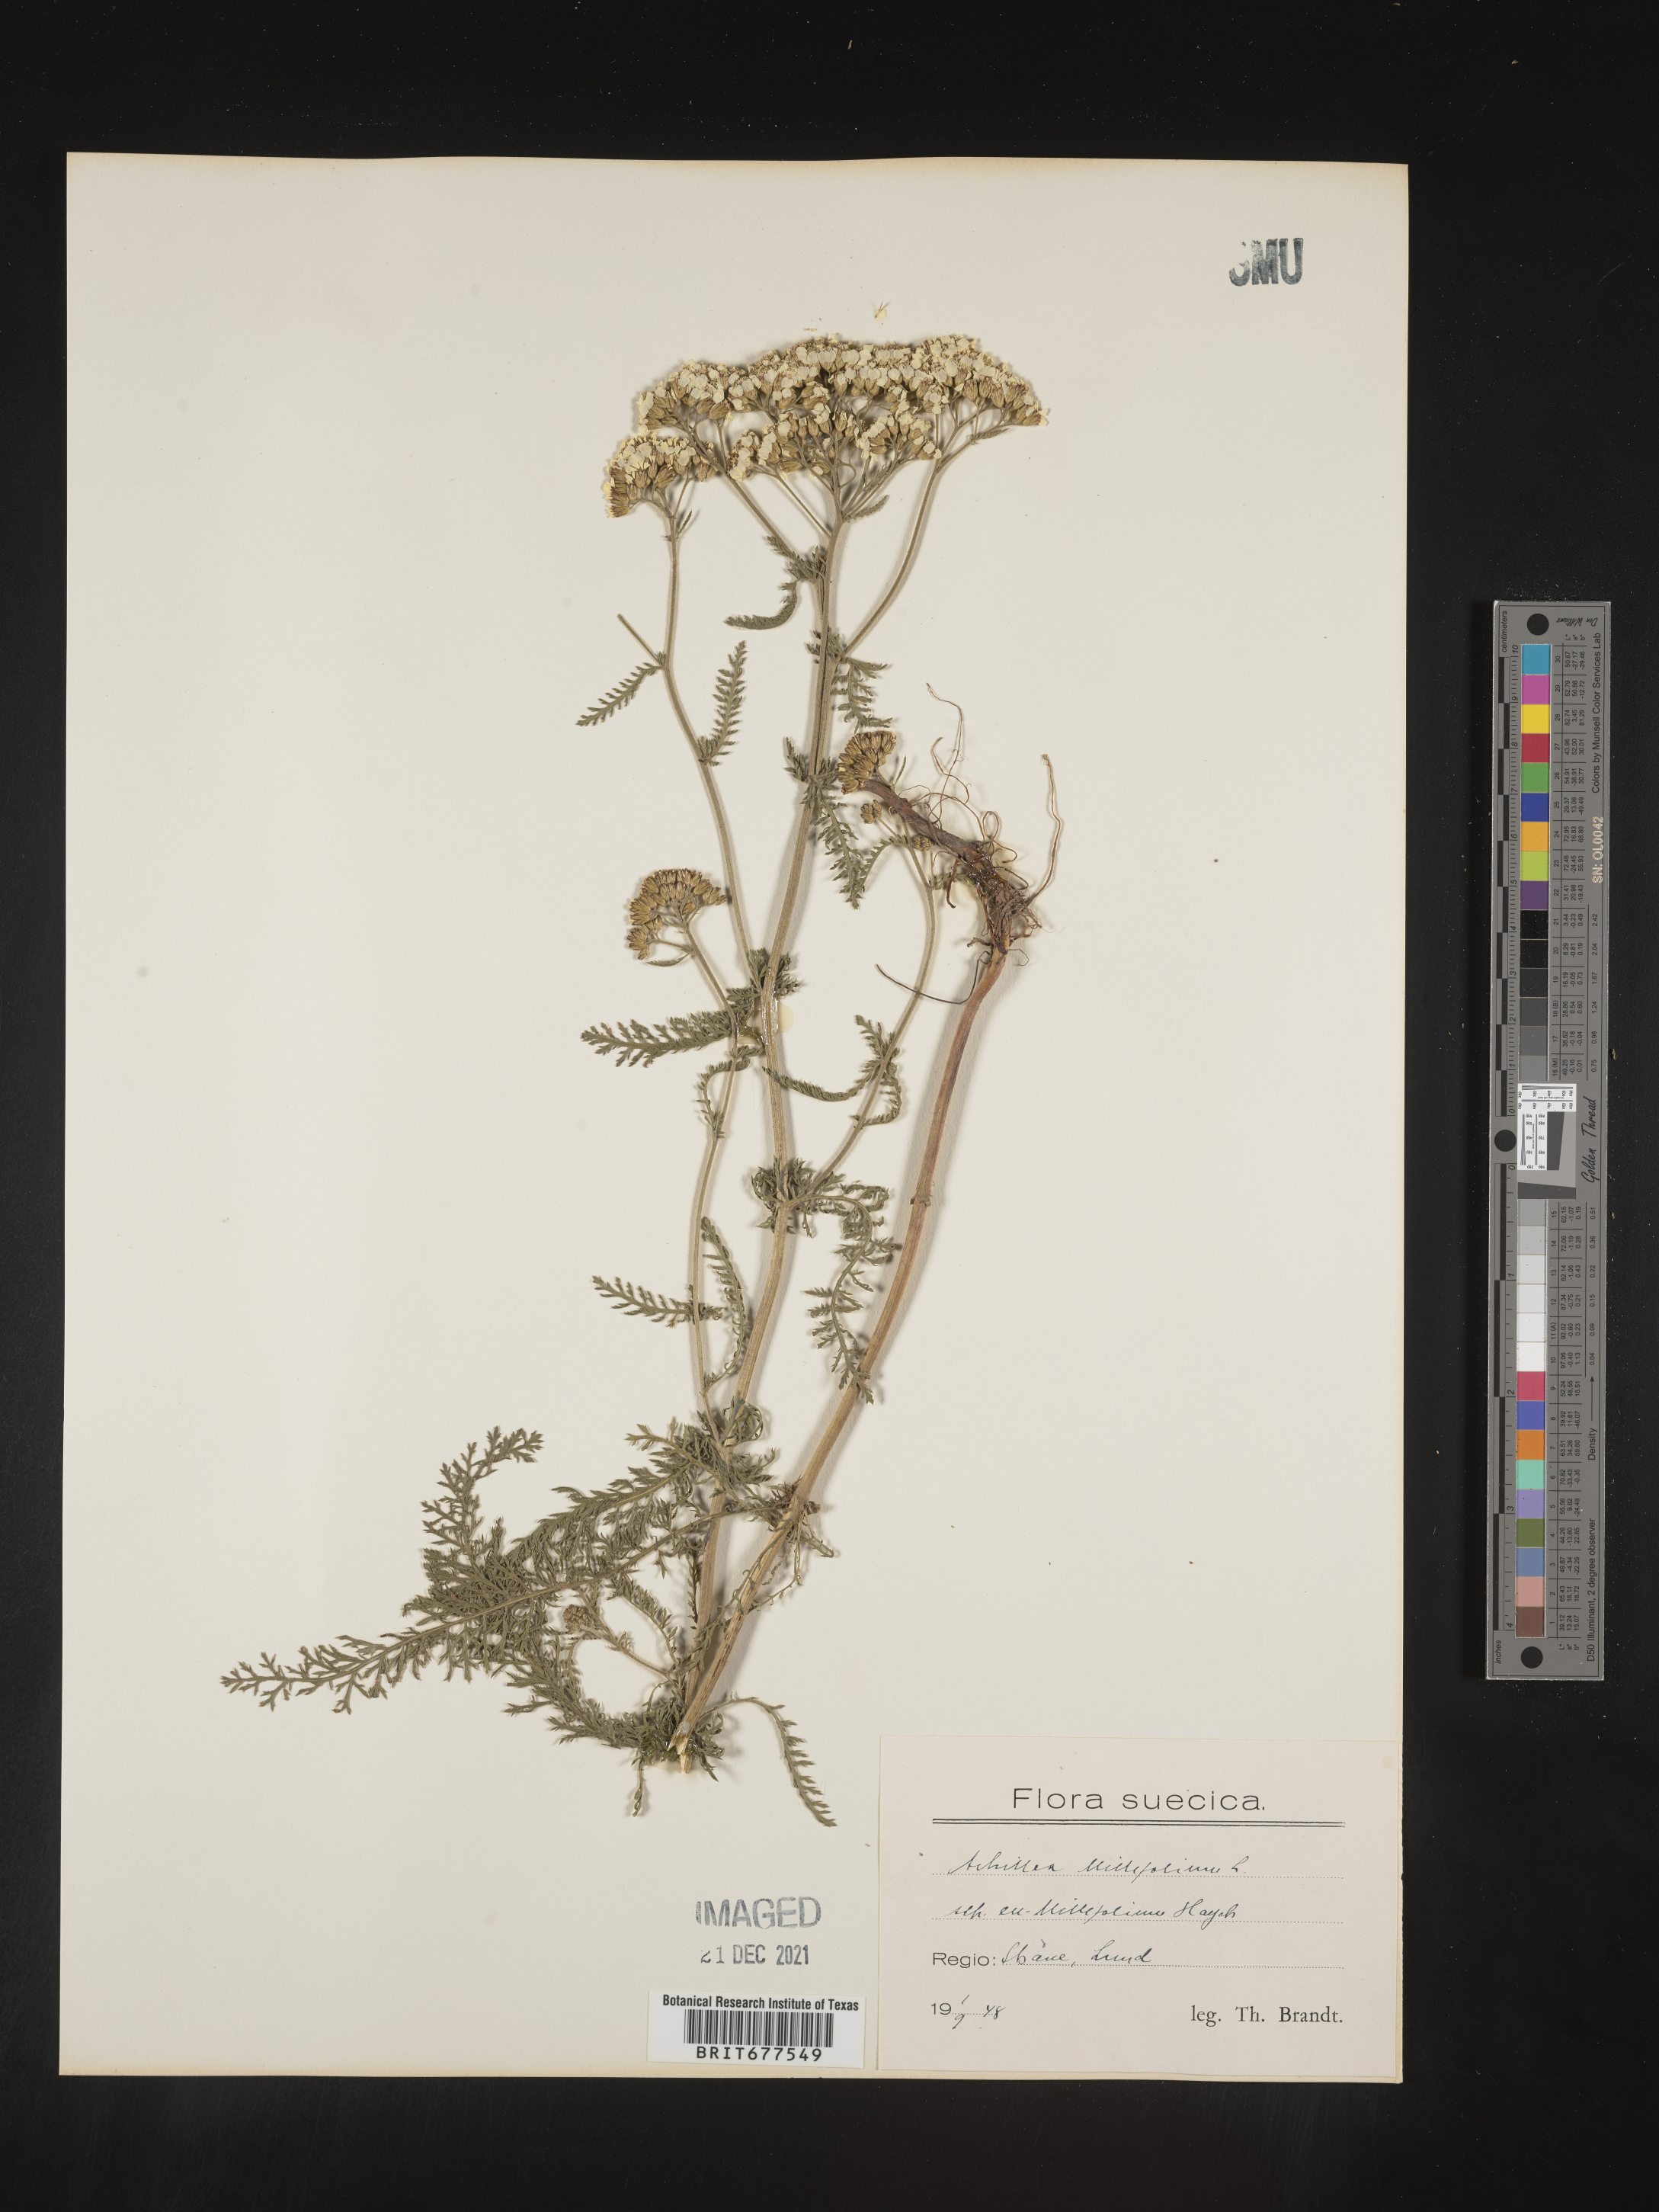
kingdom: Plantae
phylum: Tracheophyta
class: Magnoliopsida
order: Asterales
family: Asteraceae
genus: Achillea
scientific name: Achillea millefolium
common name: Yarrow
